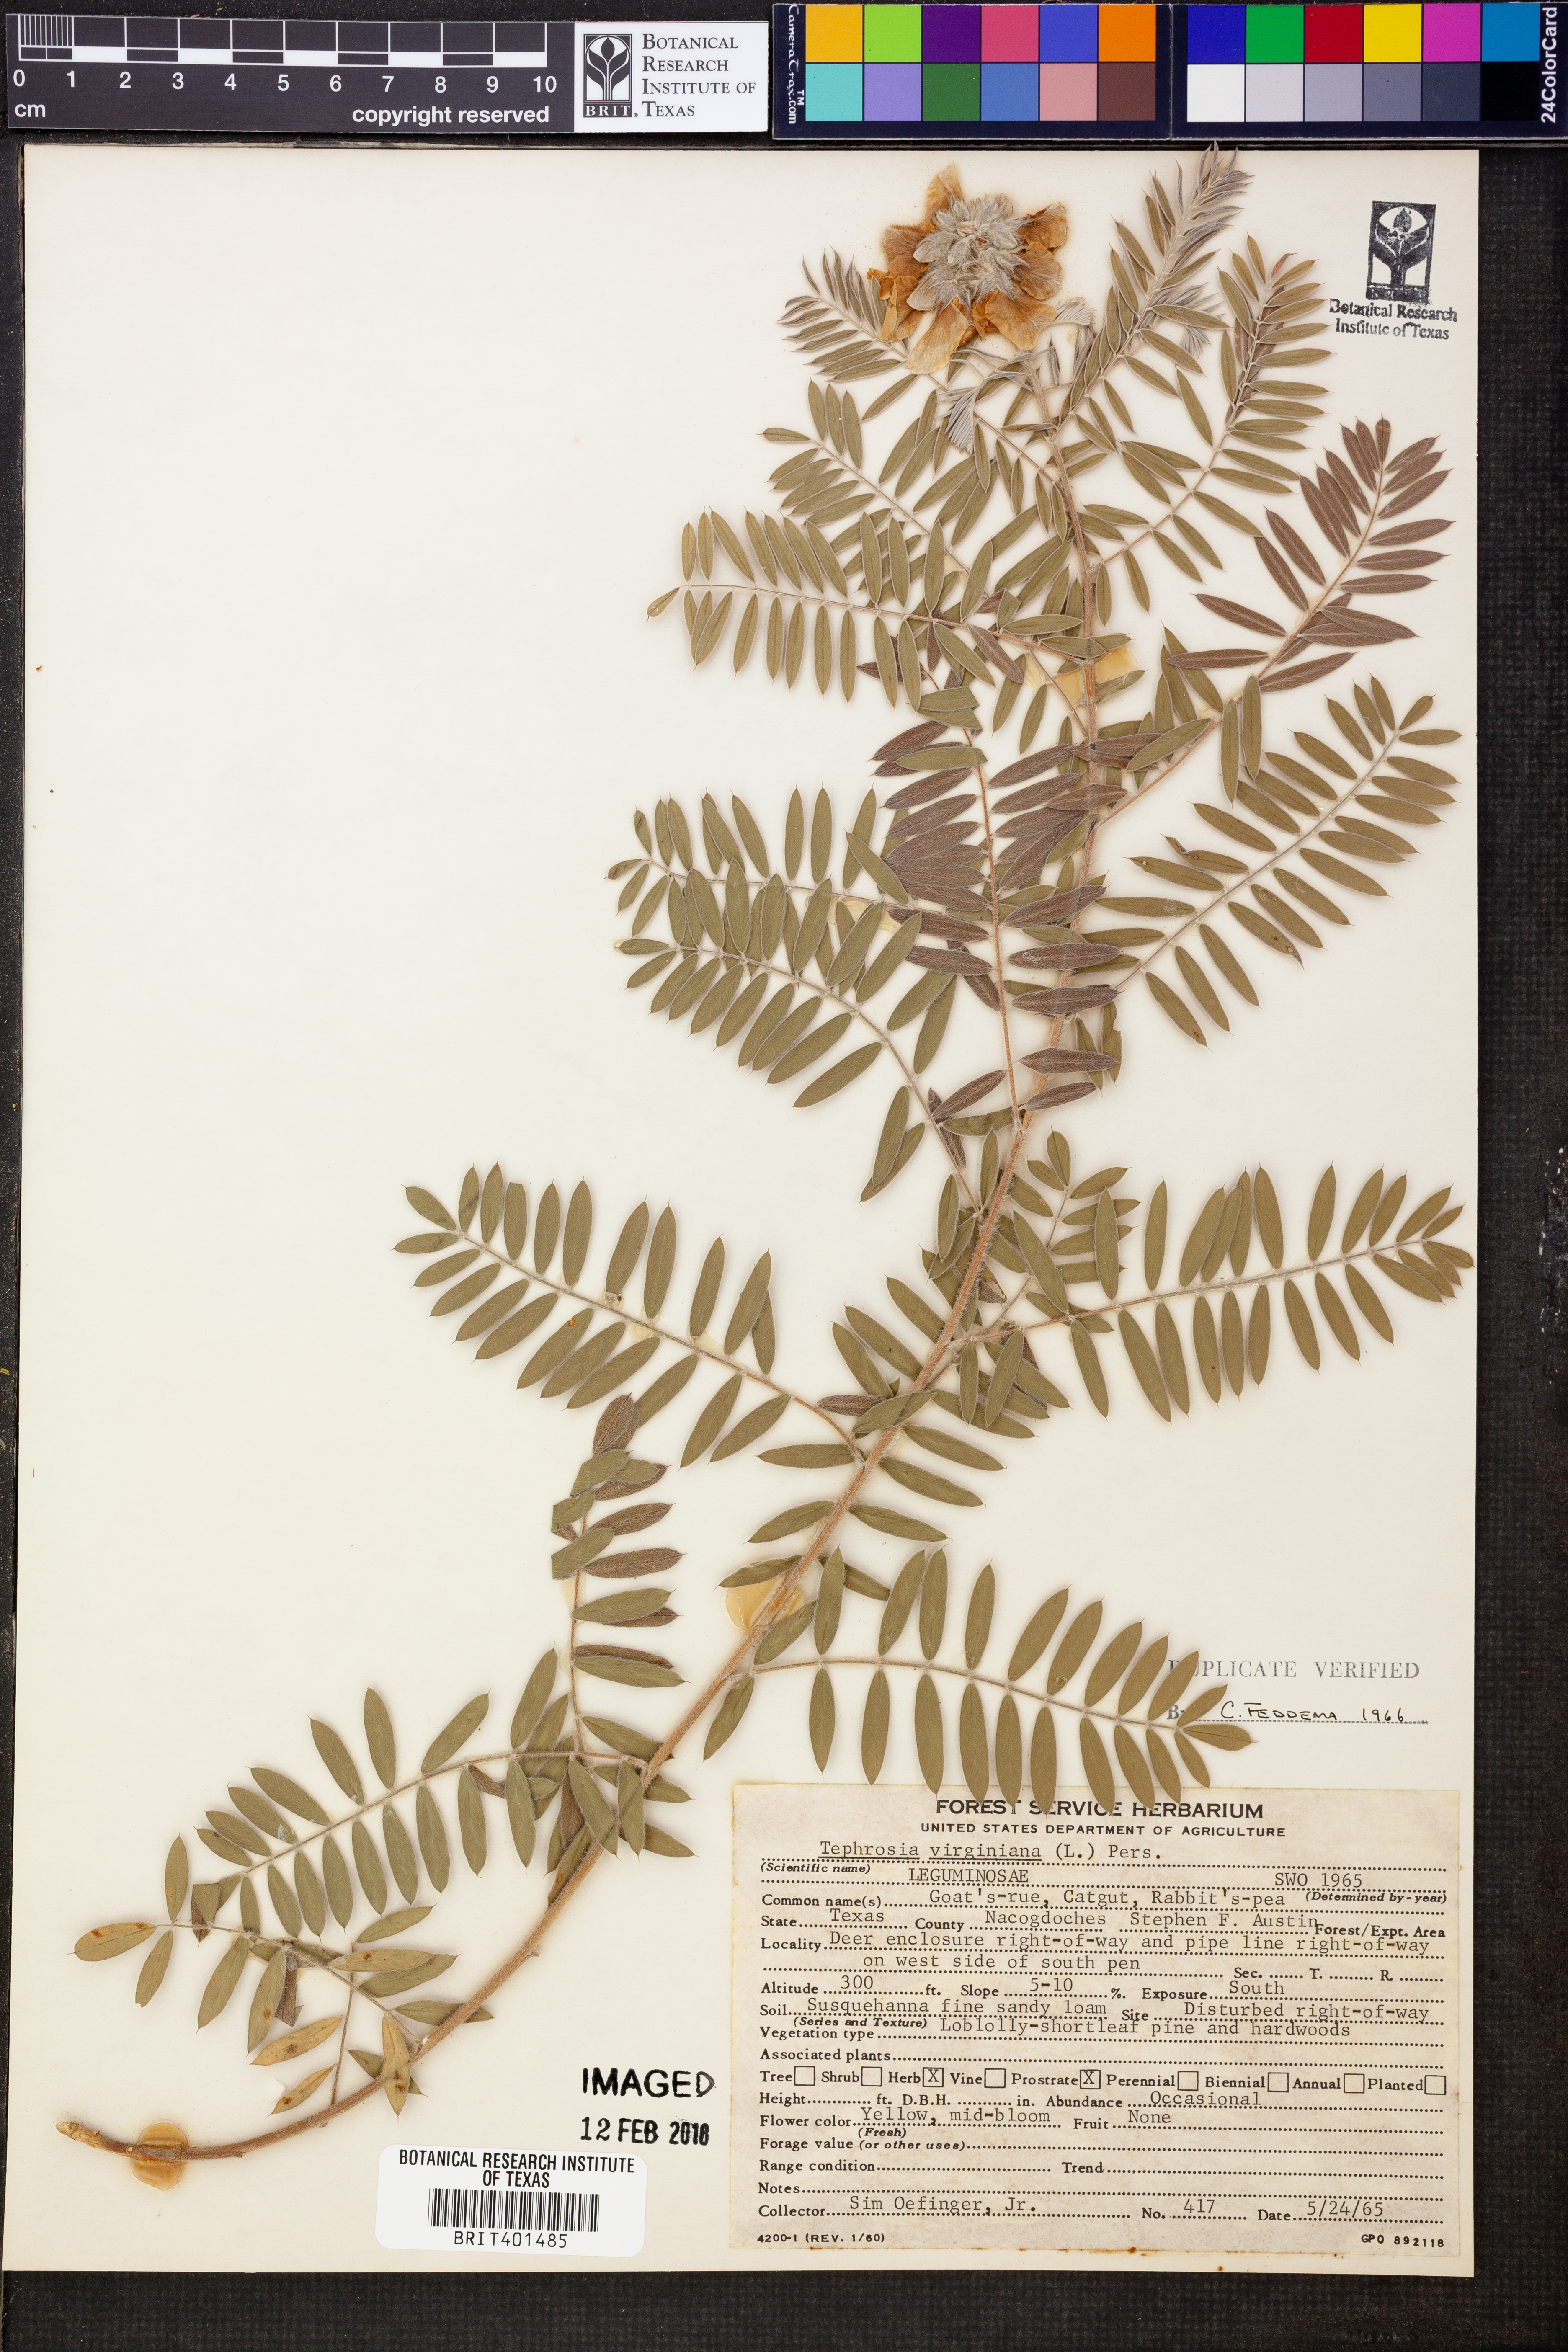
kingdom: Plantae
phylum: Tracheophyta
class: Magnoliopsida
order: Fabales
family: Fabaceae
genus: Tephrosia
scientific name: Tephrosia virginiana
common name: Rabbit-pea
